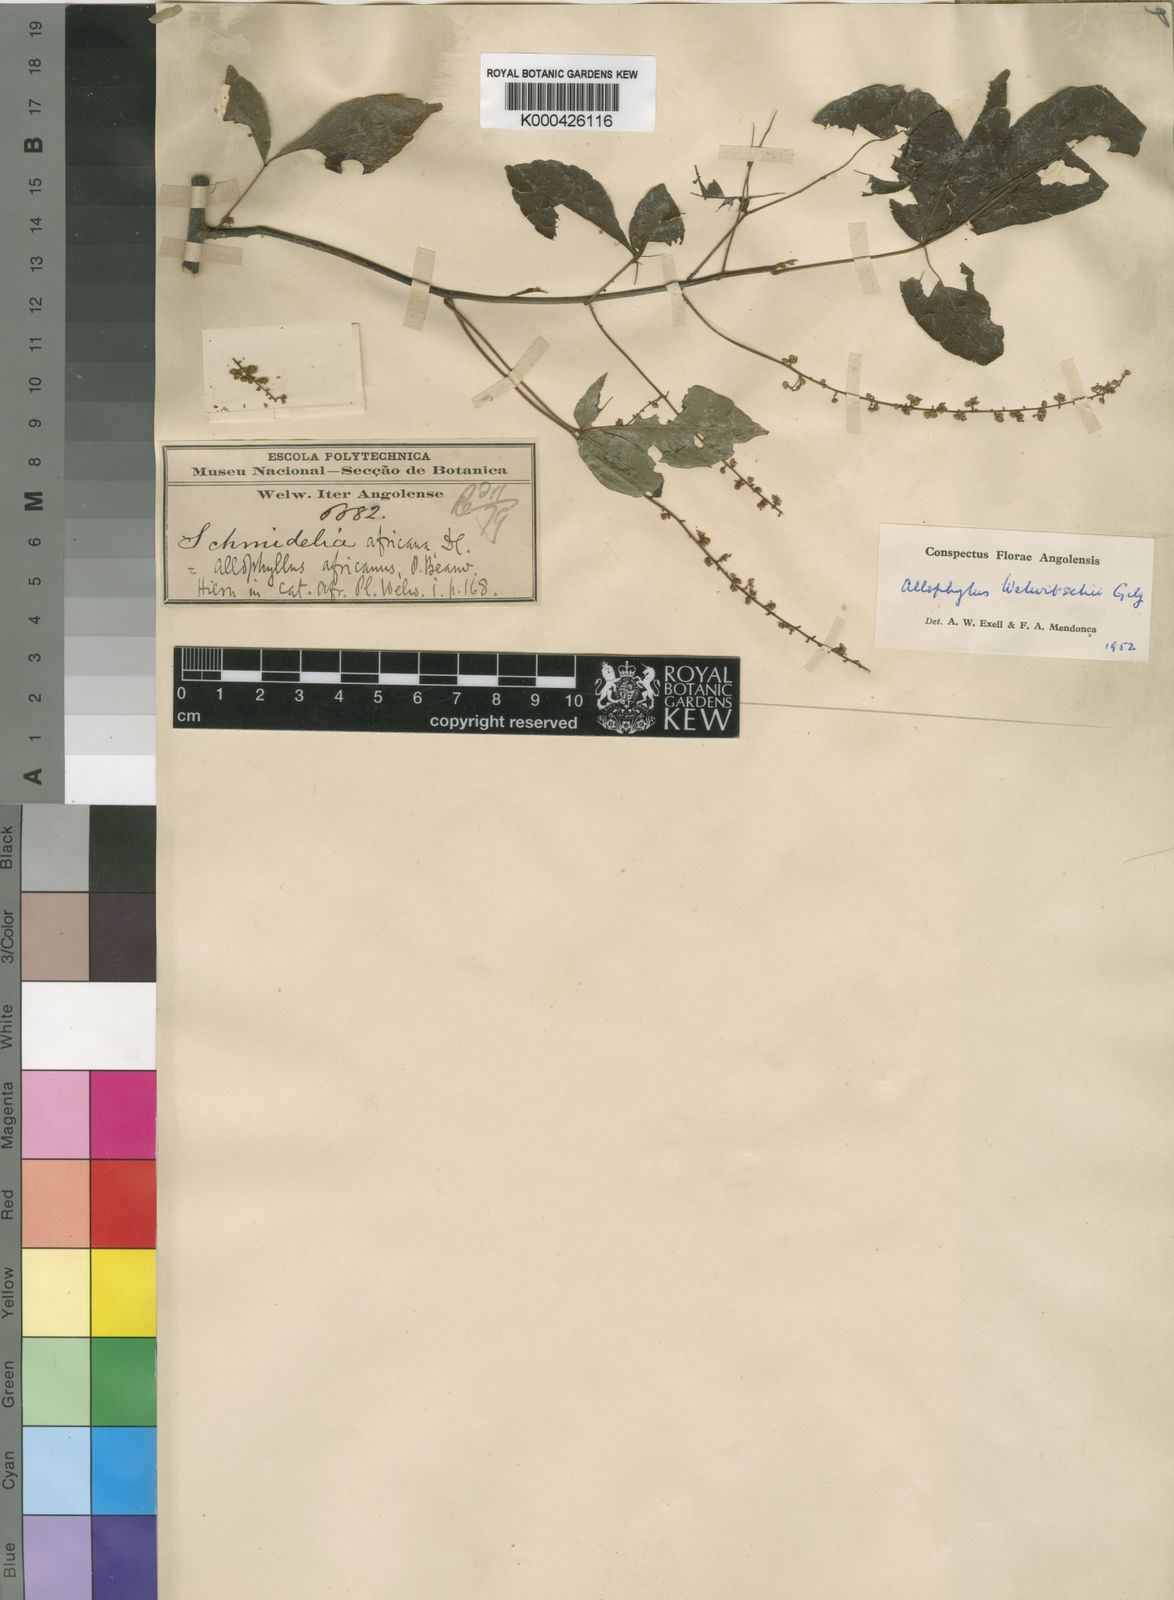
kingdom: Plantae
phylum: Tracheophyta
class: Magnoliopsida
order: Sapindales
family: Sapindaceae
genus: Allophylus
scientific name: Allophylus welwitschii
